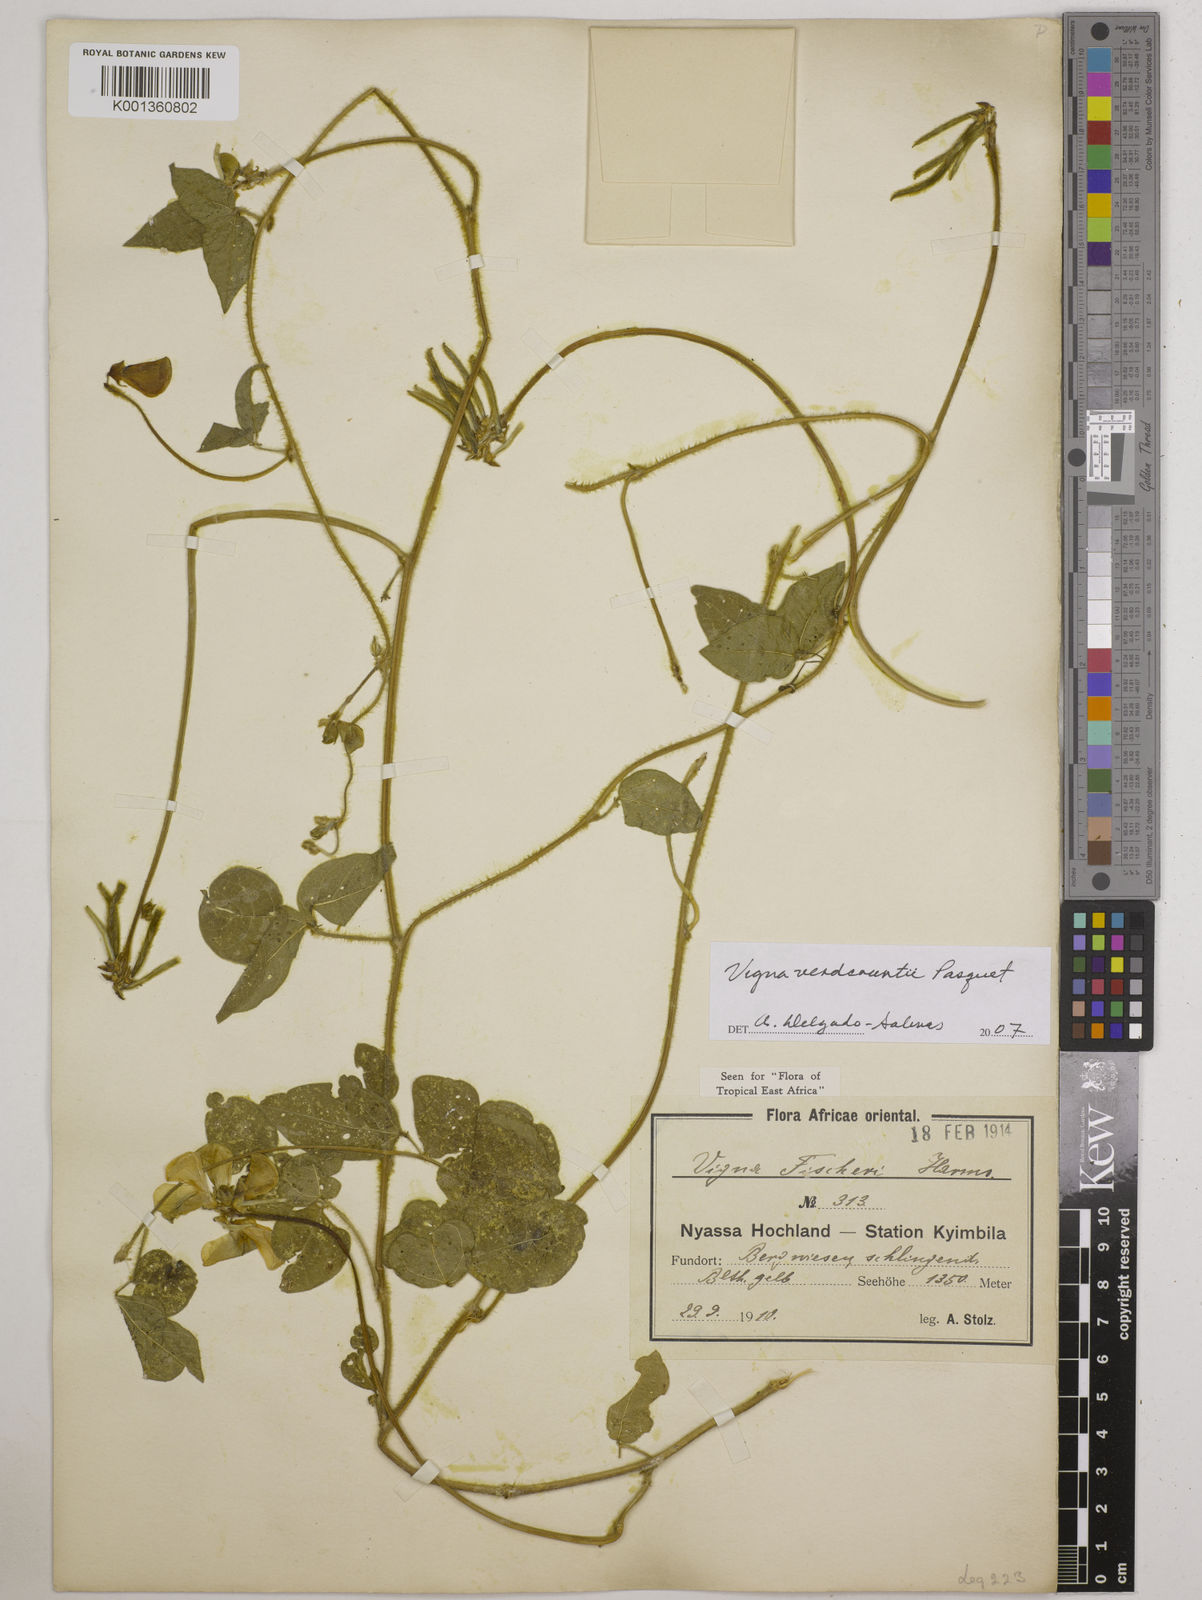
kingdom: Plantae
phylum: Tracheophyta
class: Magnoliopsida
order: Fabales
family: Fabaceae
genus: Vigna
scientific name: Vigna
